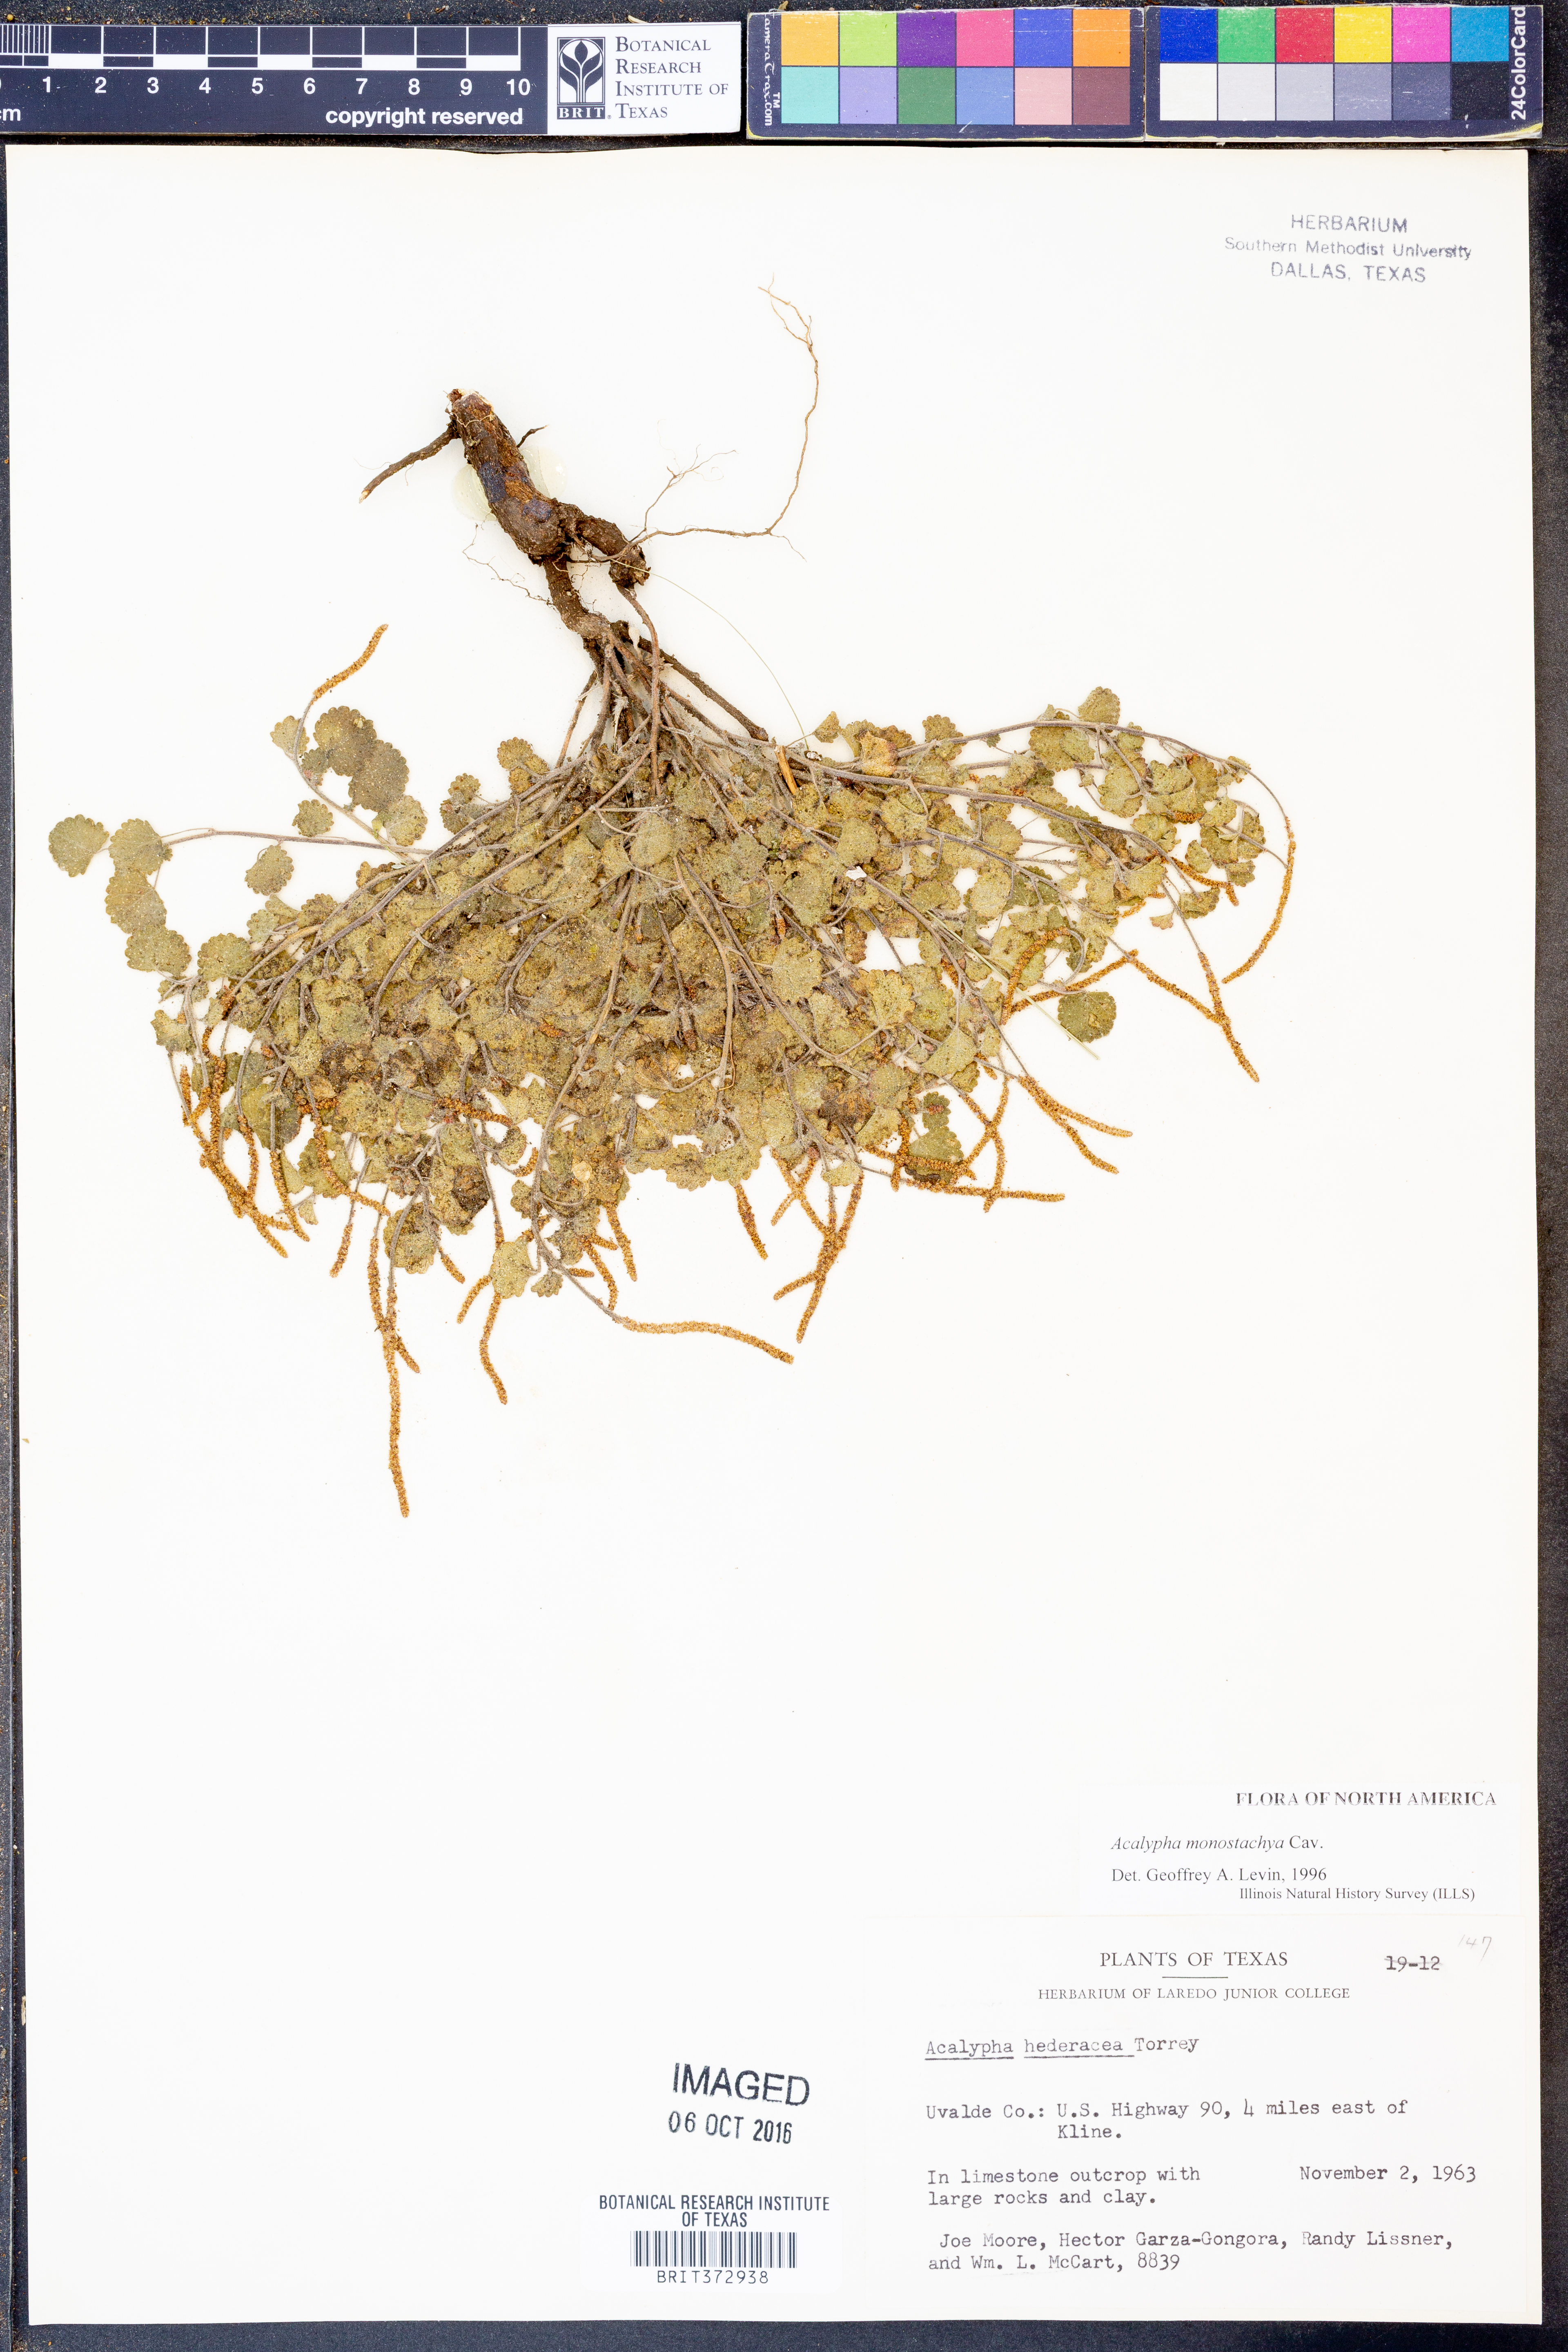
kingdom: Plantae
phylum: Tracheophyta
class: Magnoliopsida
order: Malpighiales
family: Euphorbiaceae
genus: Acalypha
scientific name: Acalypha monostachya
